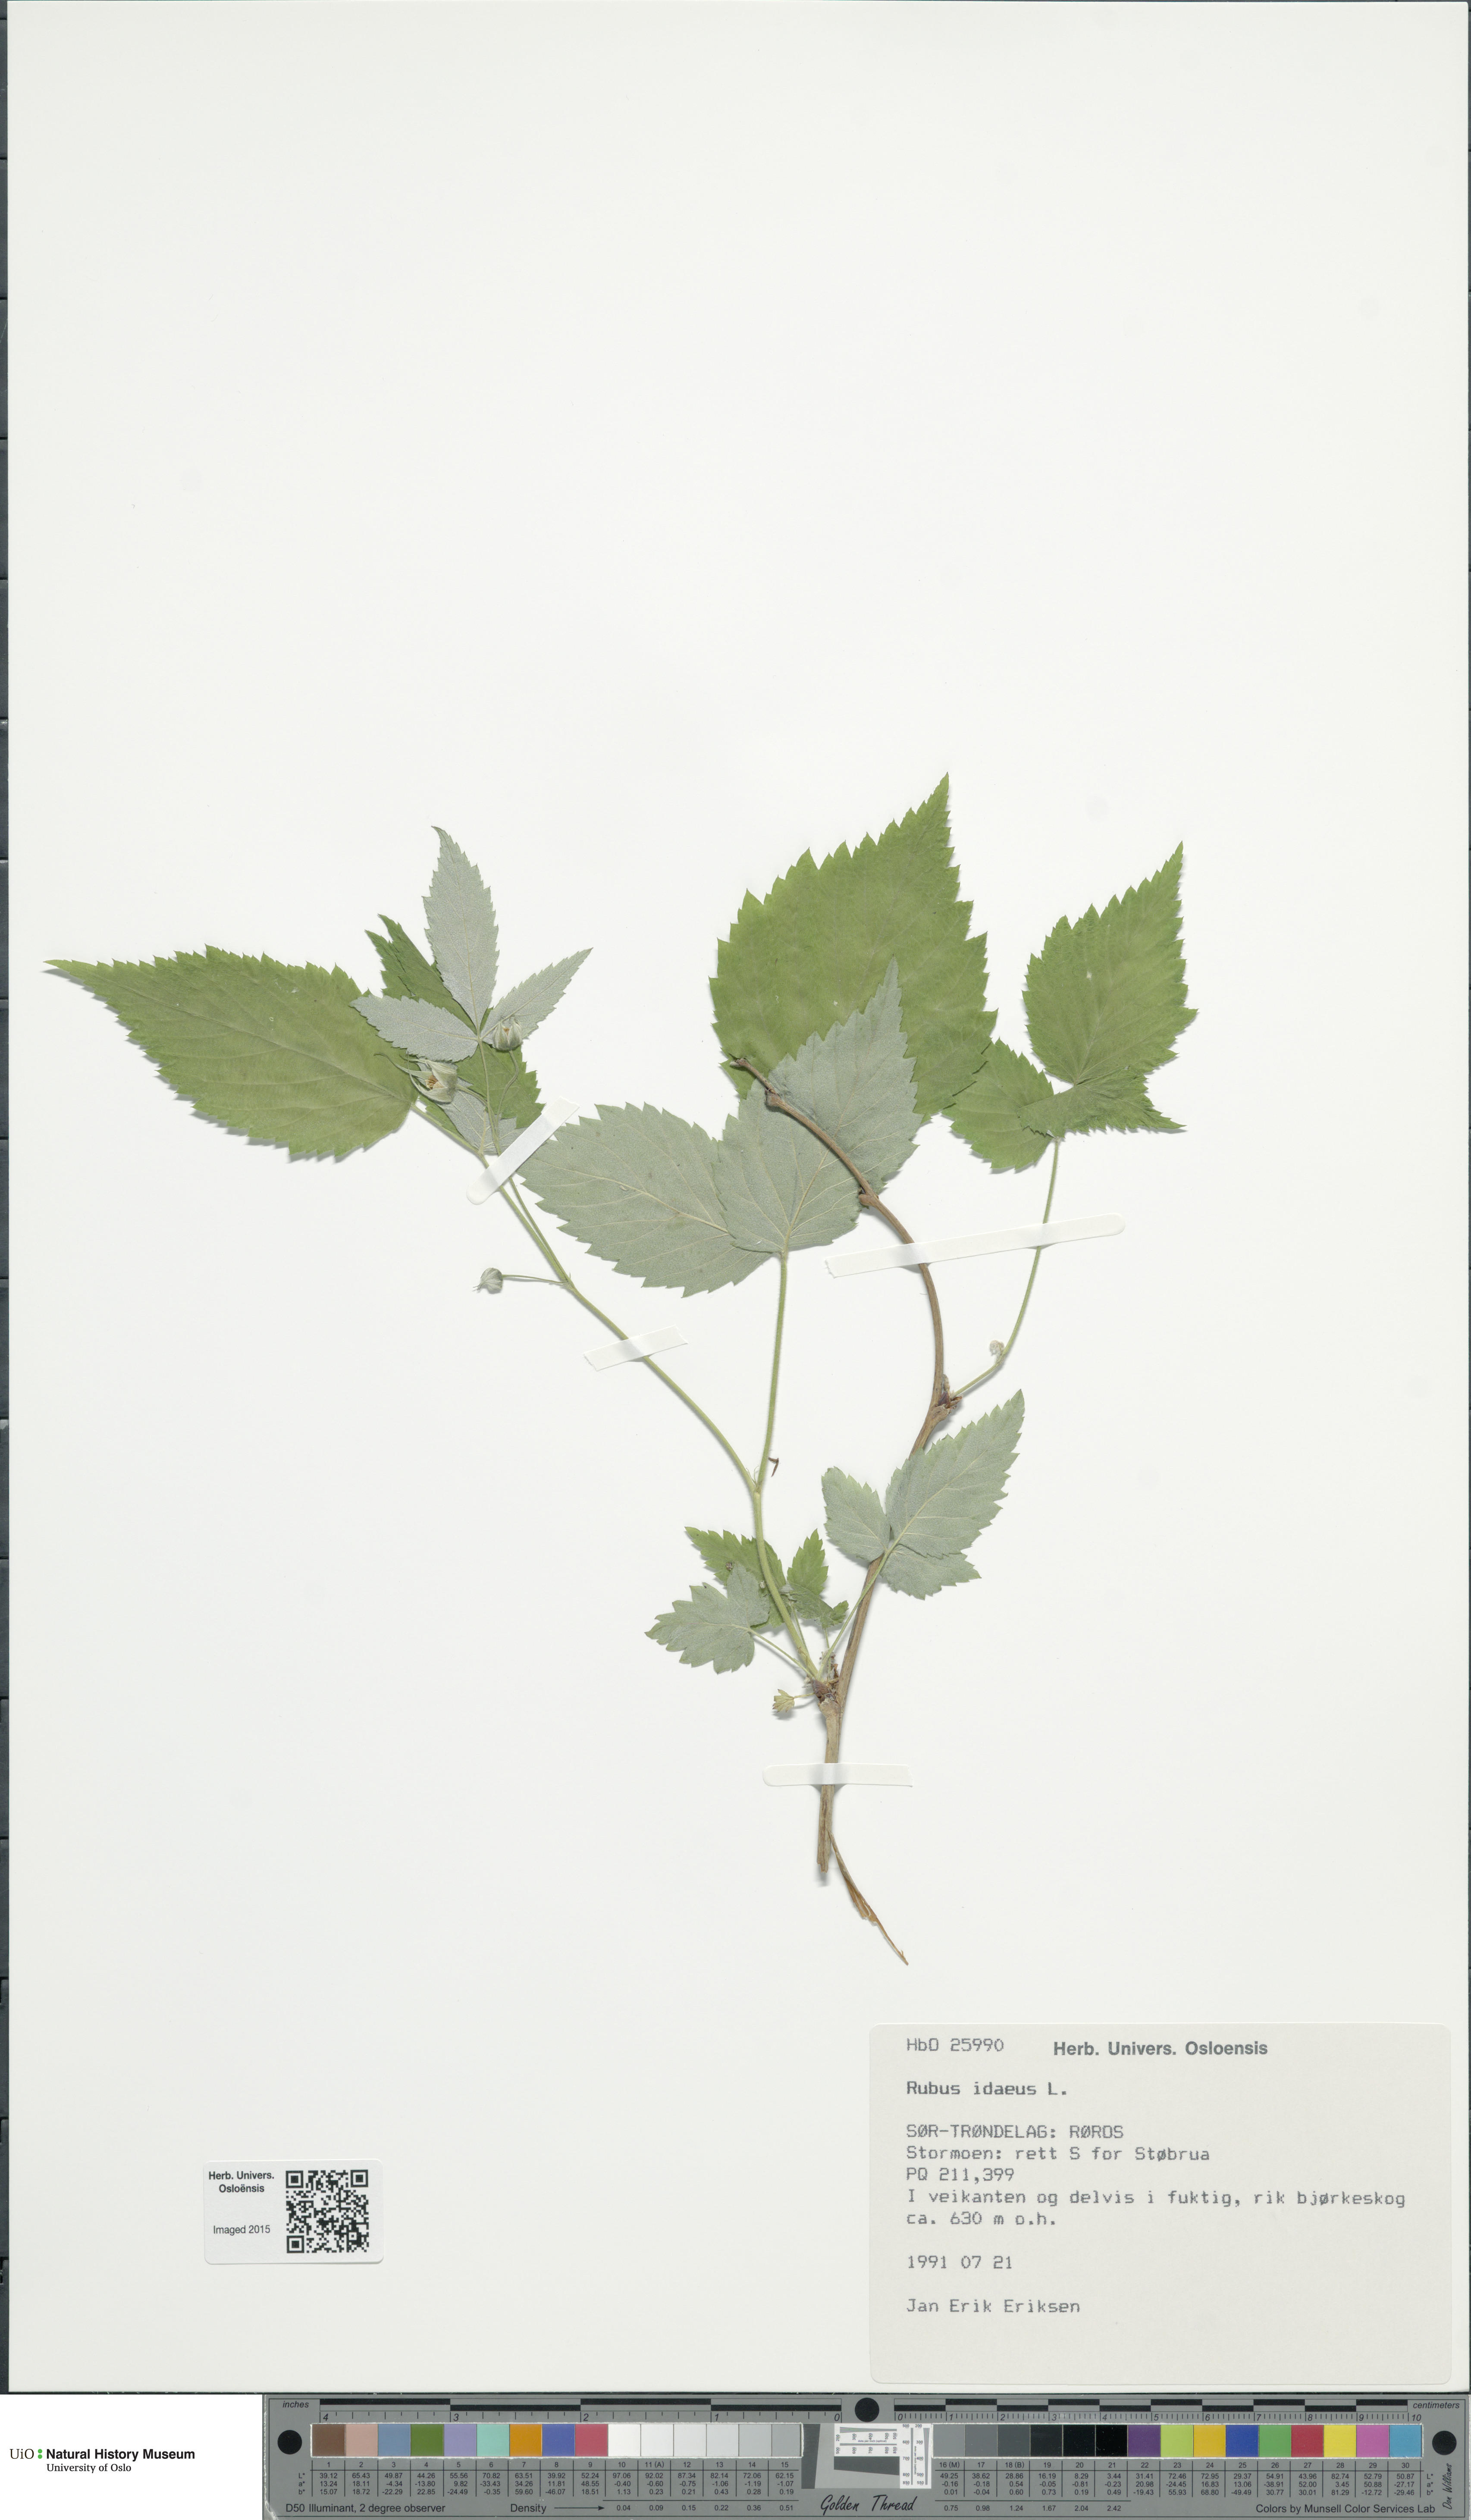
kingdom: Plantae
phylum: Tracheophyta
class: Magnoliopsida
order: Rosales
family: Rosaceae
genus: Rubus
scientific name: Rubus idaeus
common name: Raspberry
